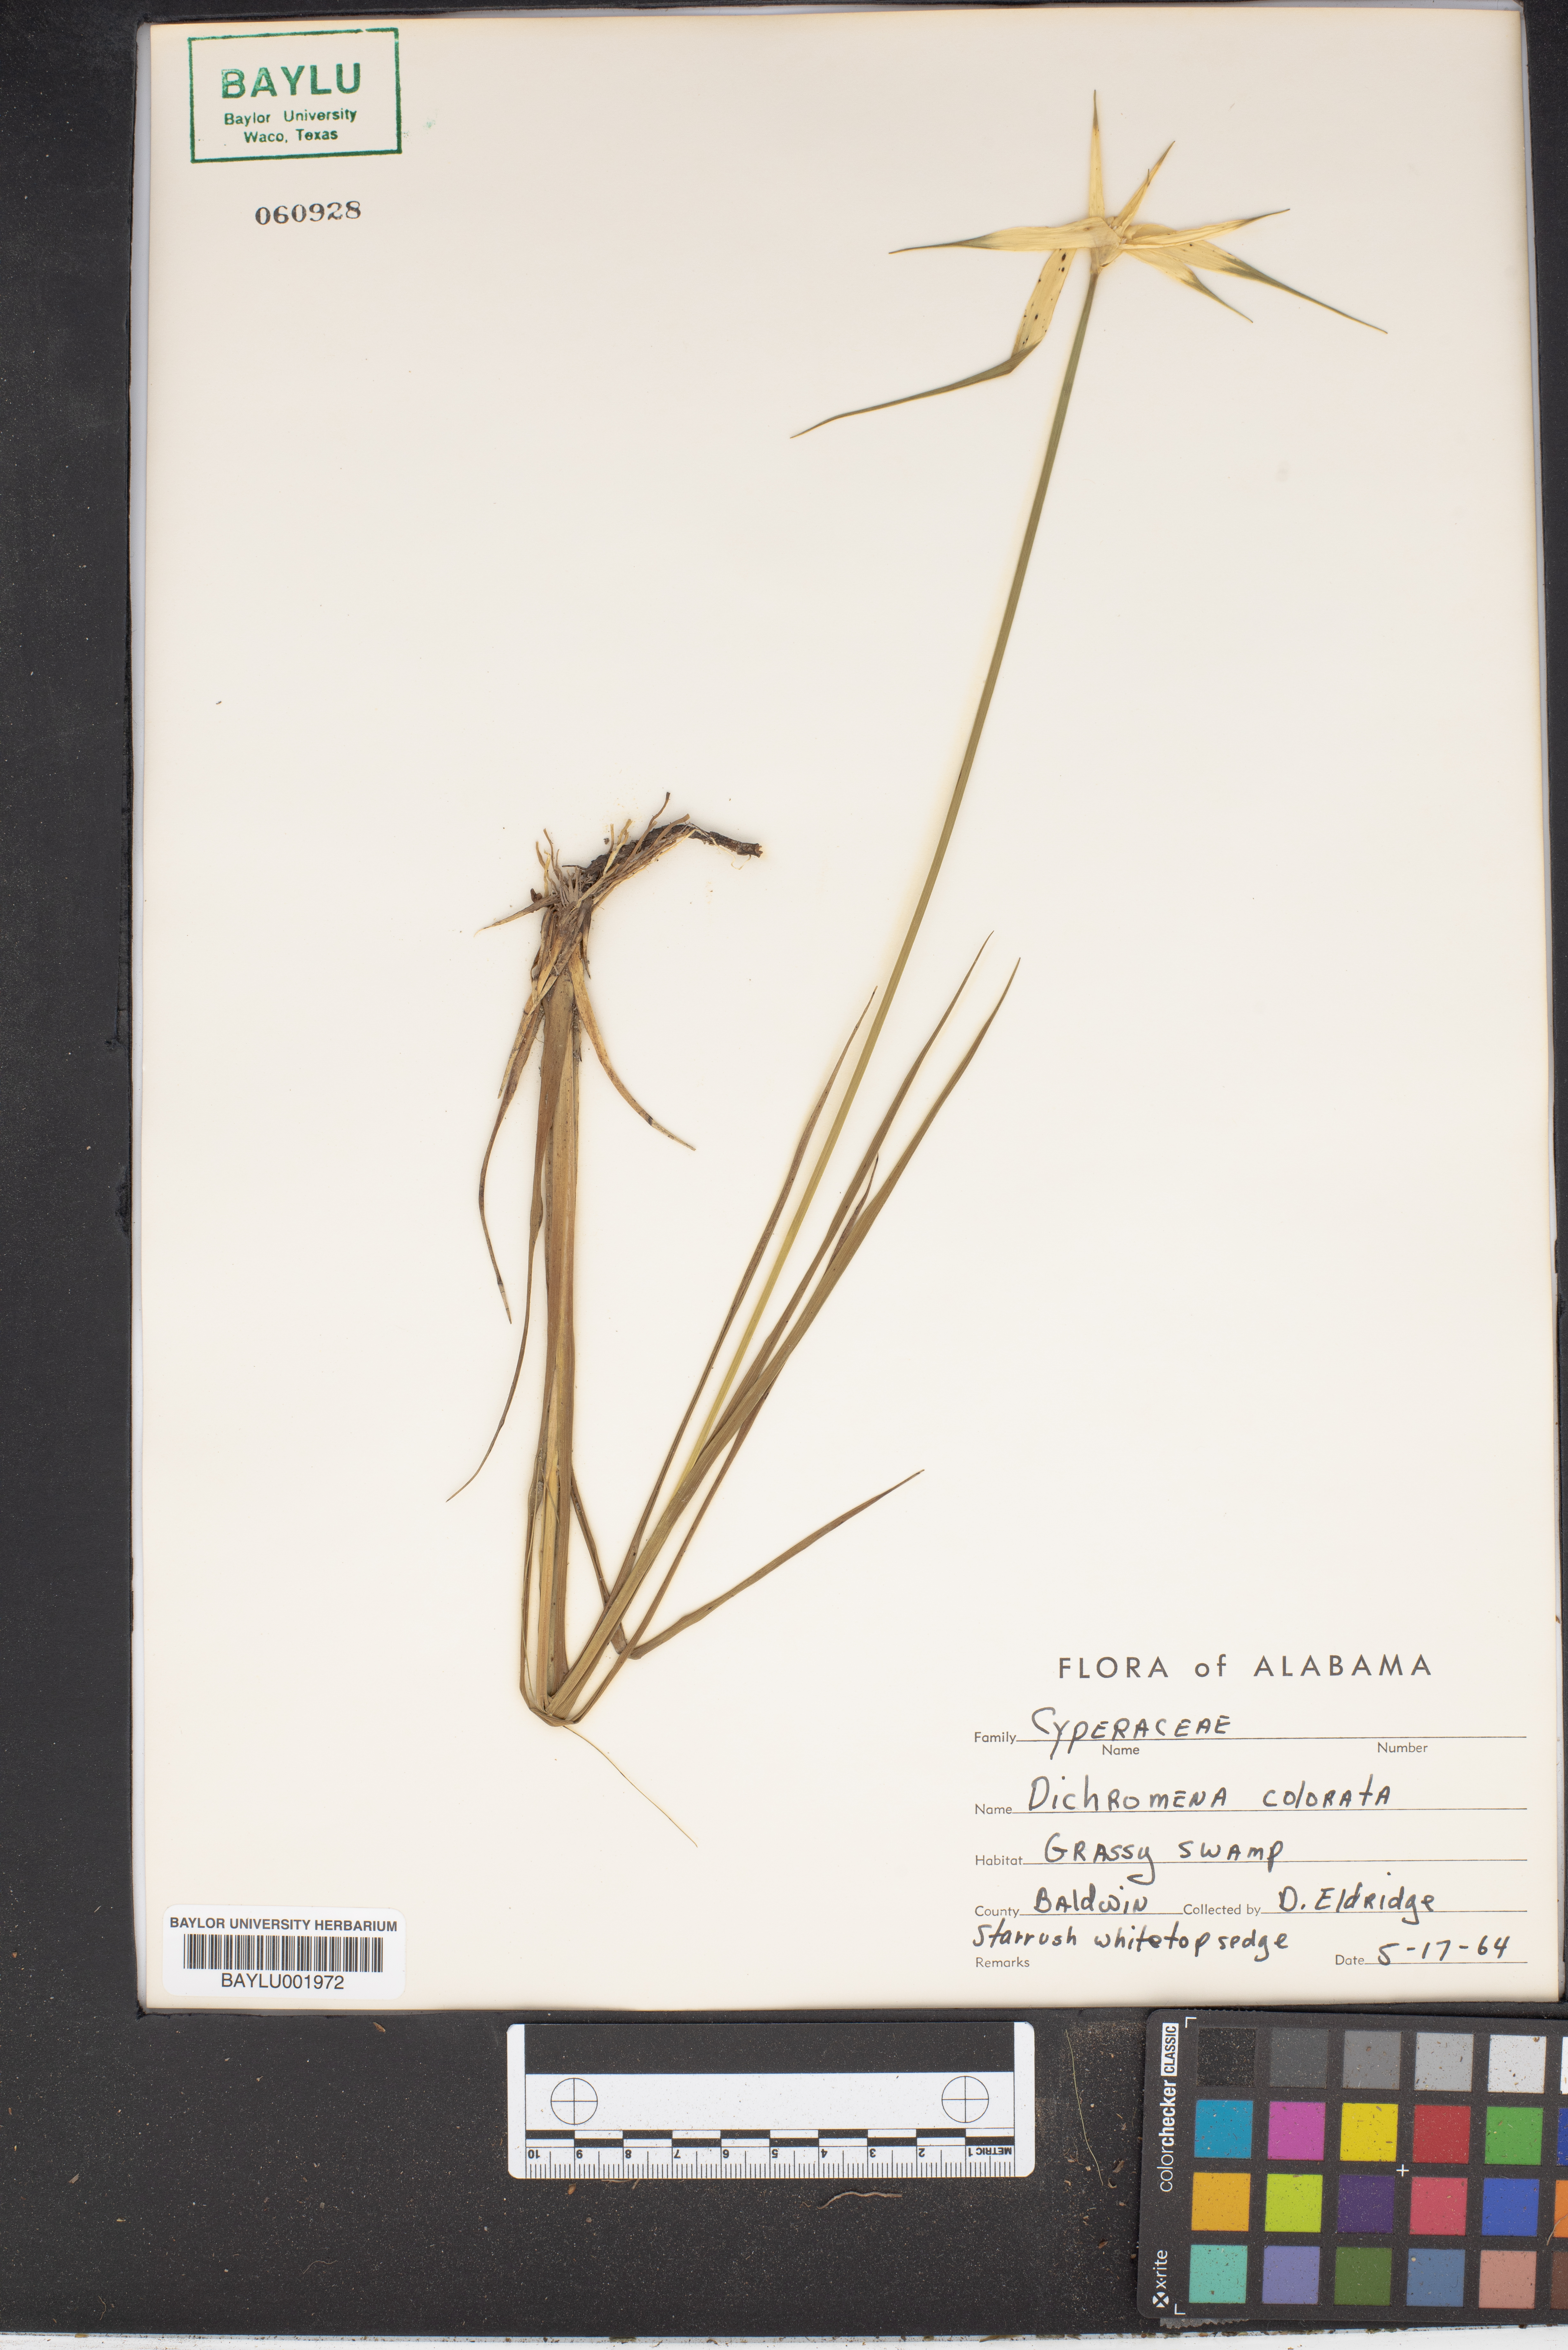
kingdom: Plantae
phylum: Tracheophyta
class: Liliopsida
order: Poales
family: Cyperaceae
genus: Rhynchospora
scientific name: Rhynchospora colorata
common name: Star sedge
